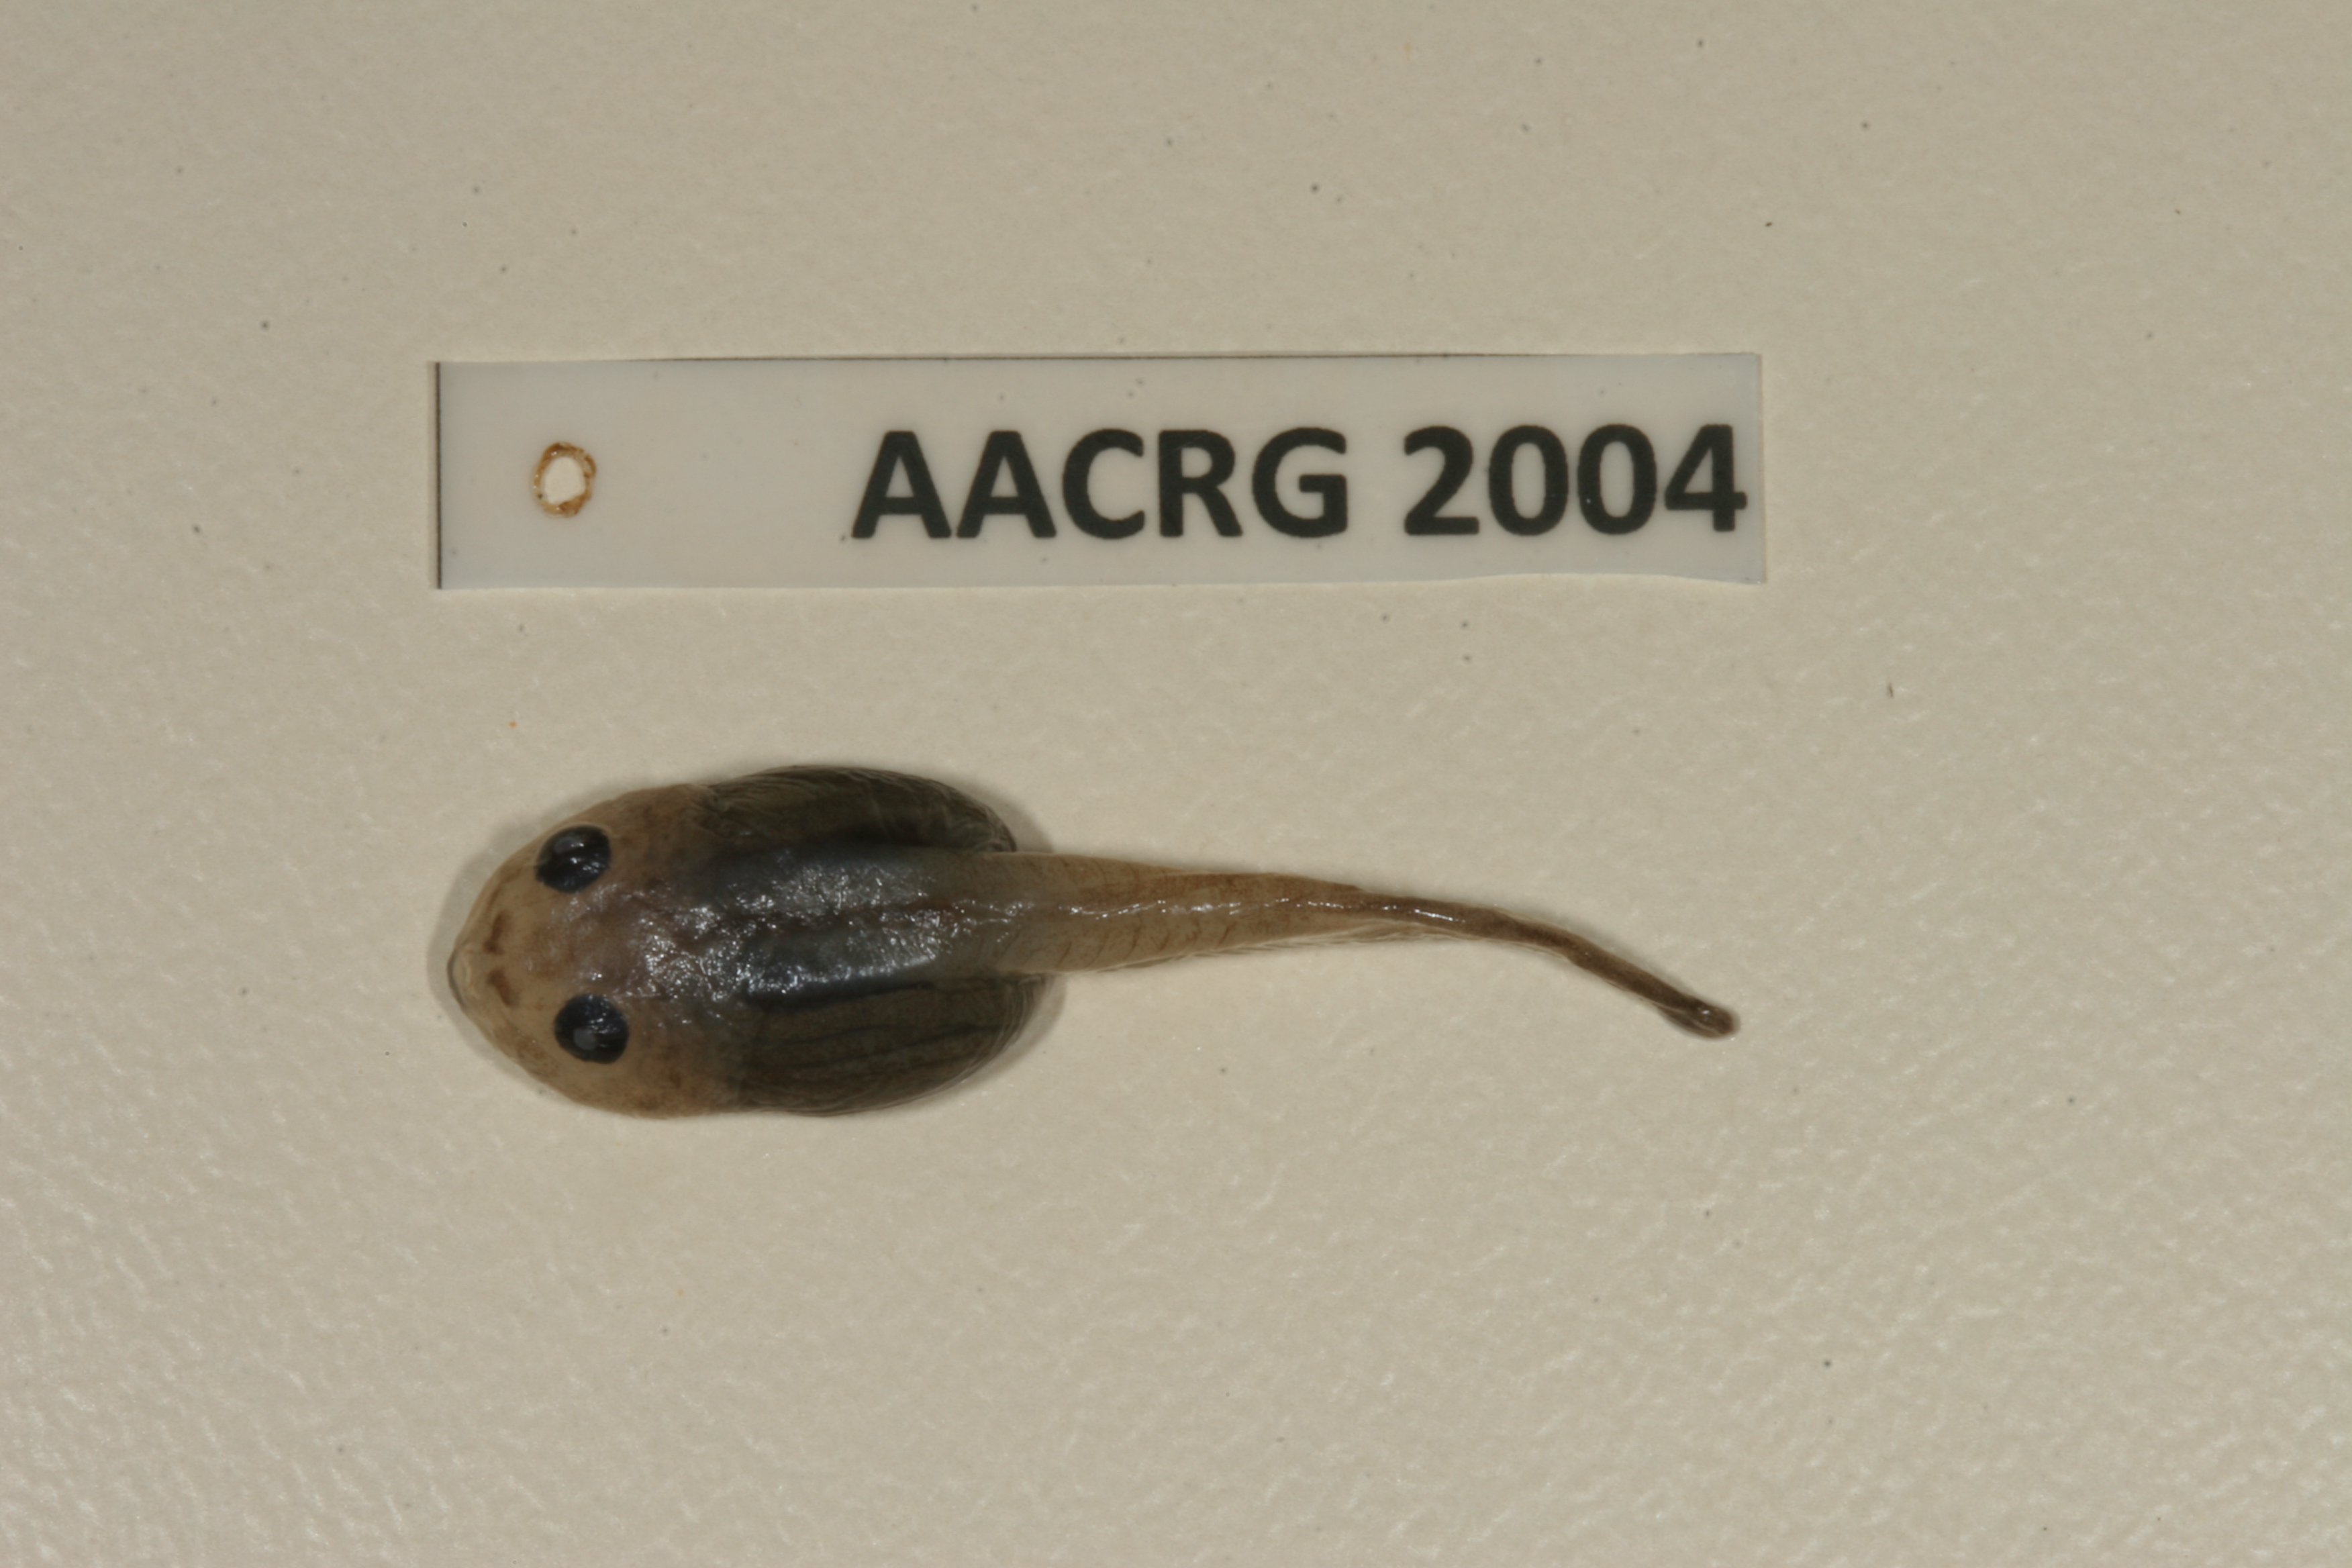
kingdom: Animalia
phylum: Chordata
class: Amphibia
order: Anura
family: Bufonidae
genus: Sclerophrys
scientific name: Sclerophrys garmani
